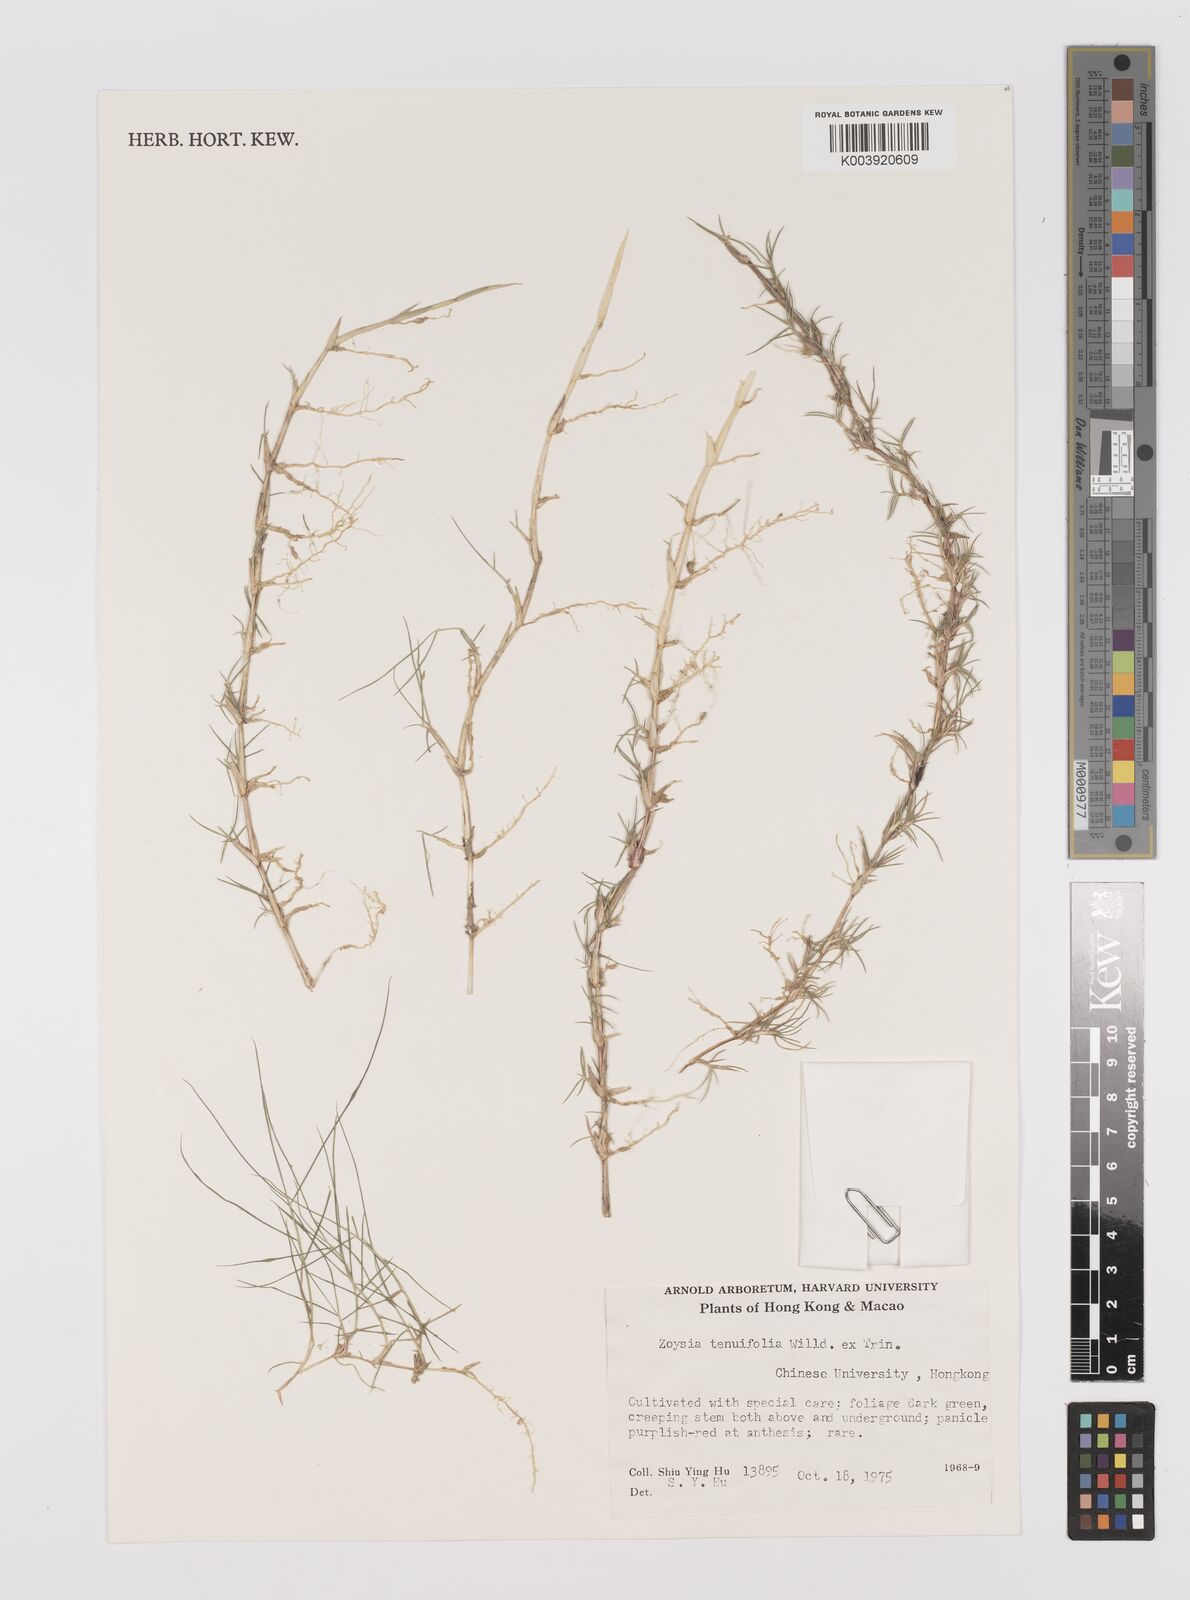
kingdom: Plantae
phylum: Tracheophyta
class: Liliopsida
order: Poales
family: Poaceae
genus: Zoysia
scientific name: Zoysia matrella
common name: Manila grass
